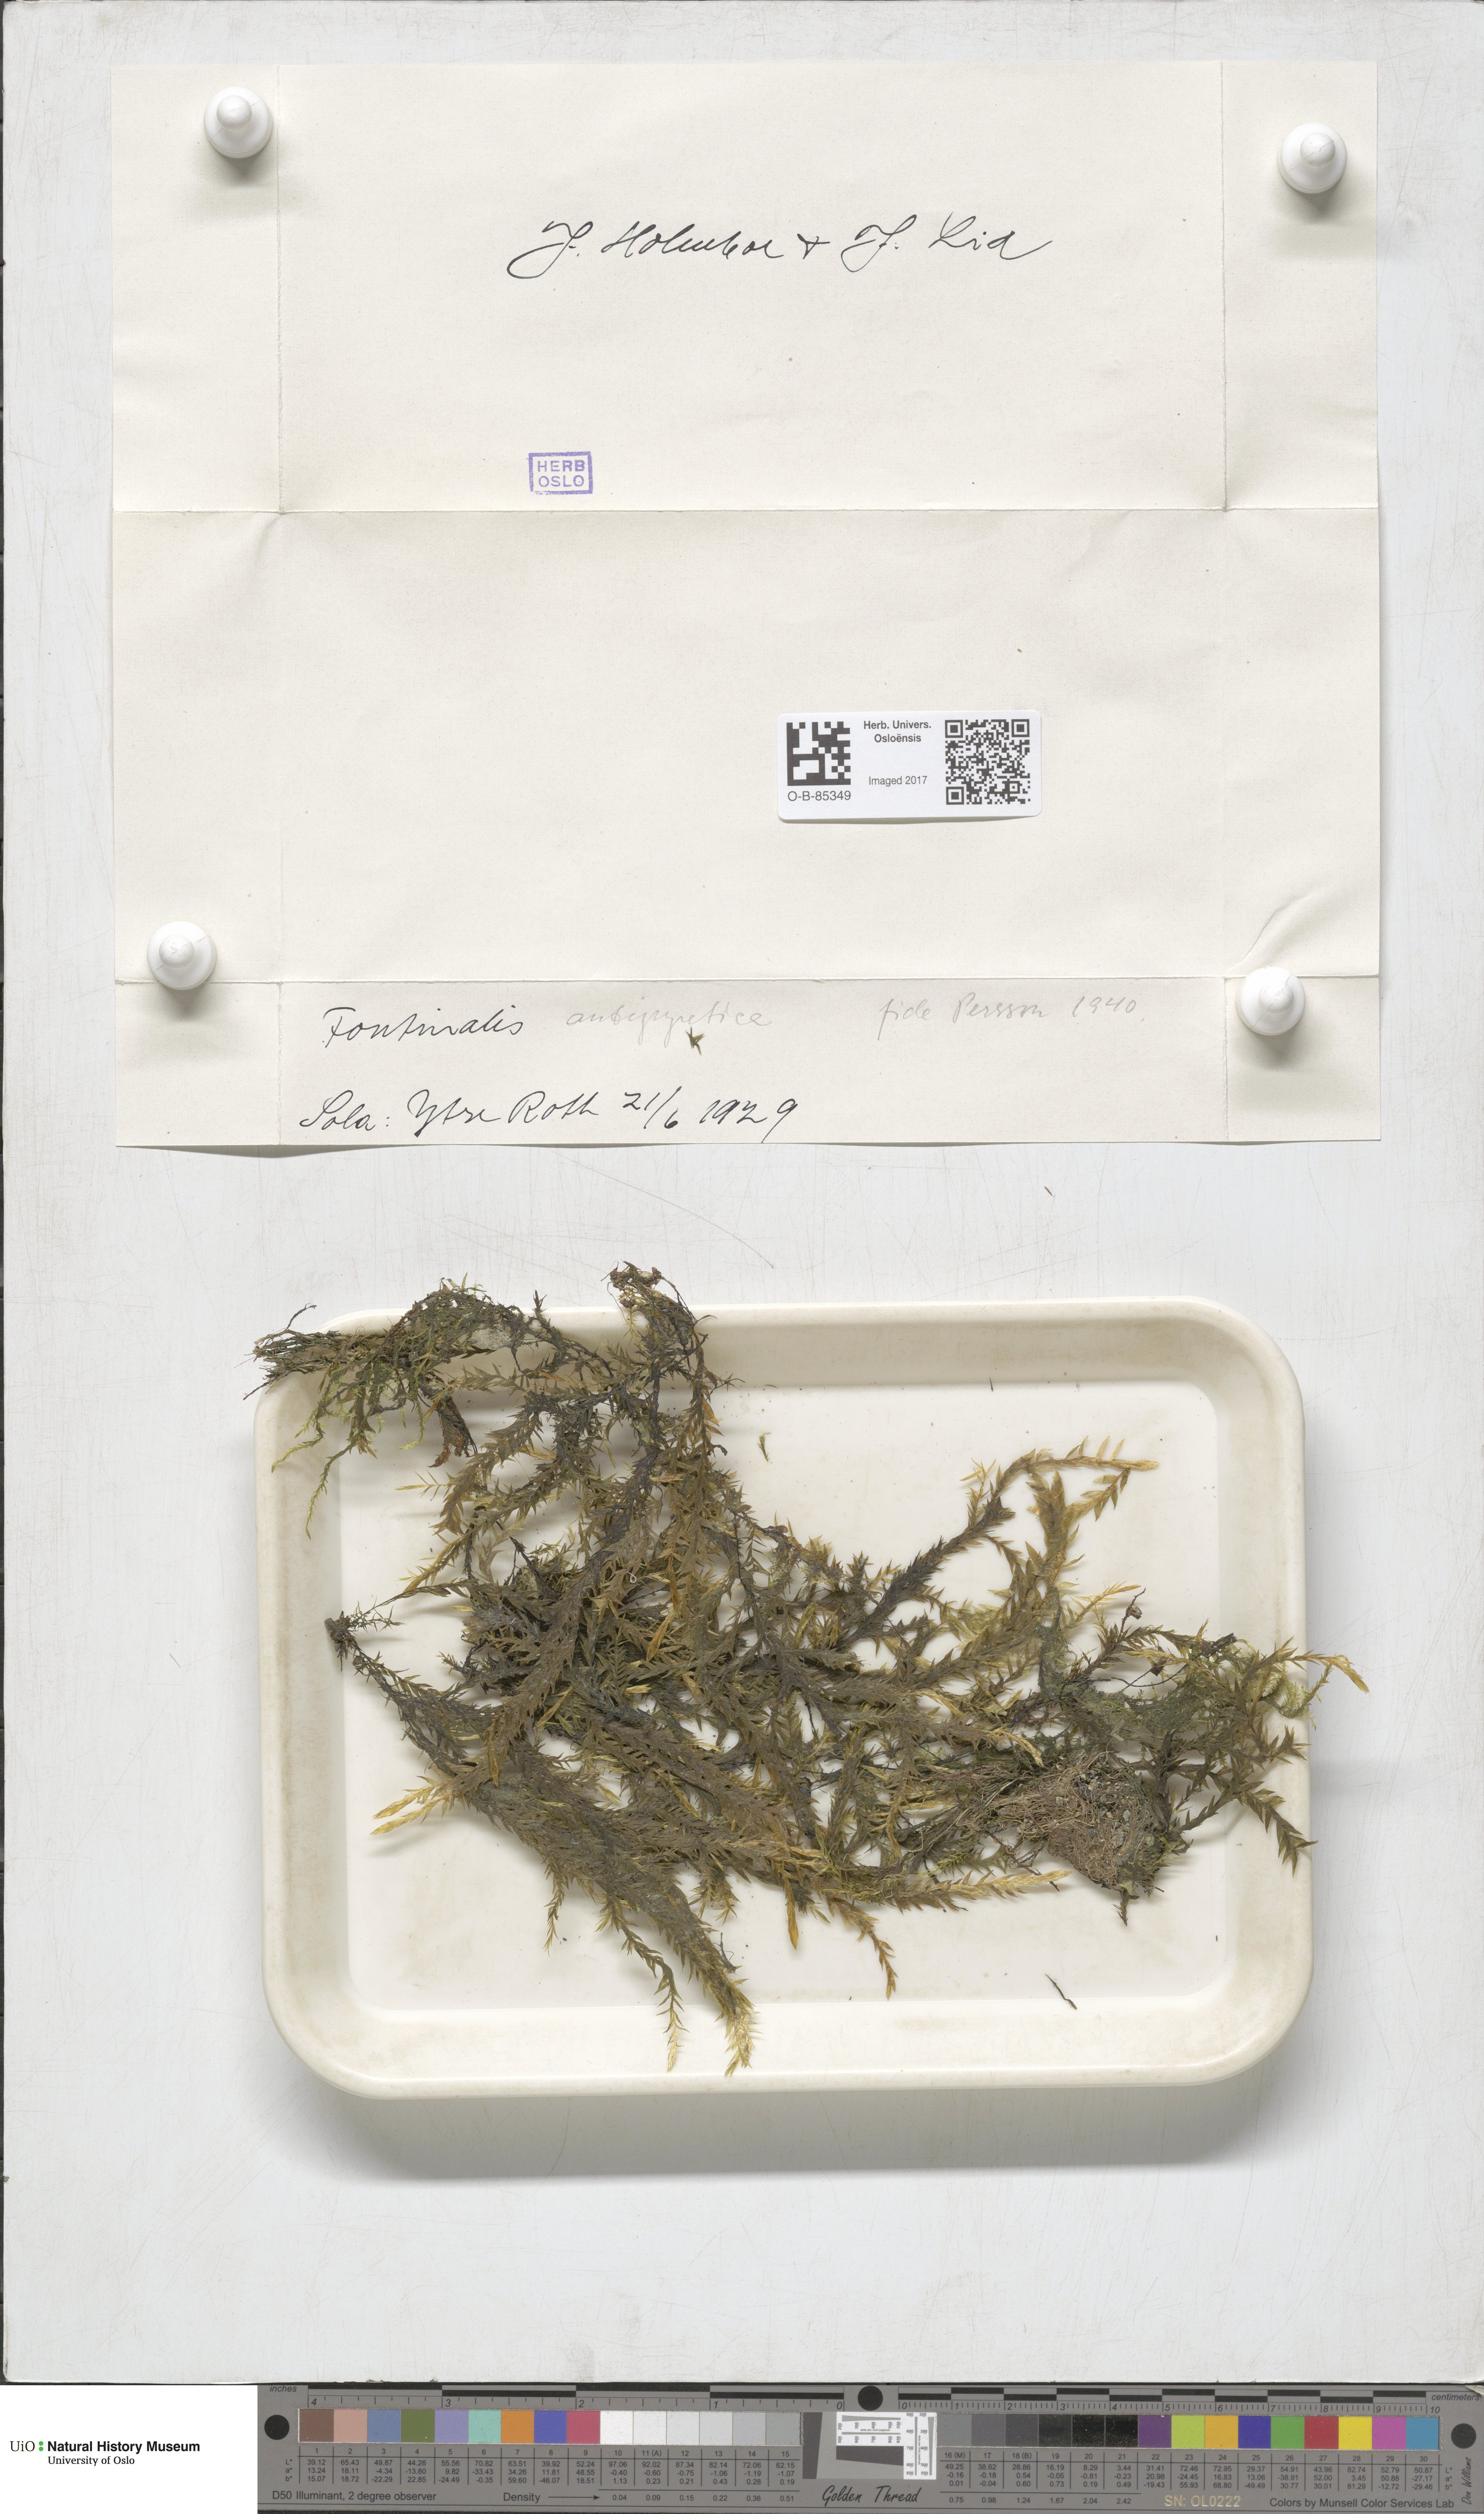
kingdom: Plantae
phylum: Bryophyta
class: Bryopsida
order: Hypnales
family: Fontinalaceae
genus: Fontinalis
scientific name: Fontinalis antipyretica
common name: Greater water-moss
